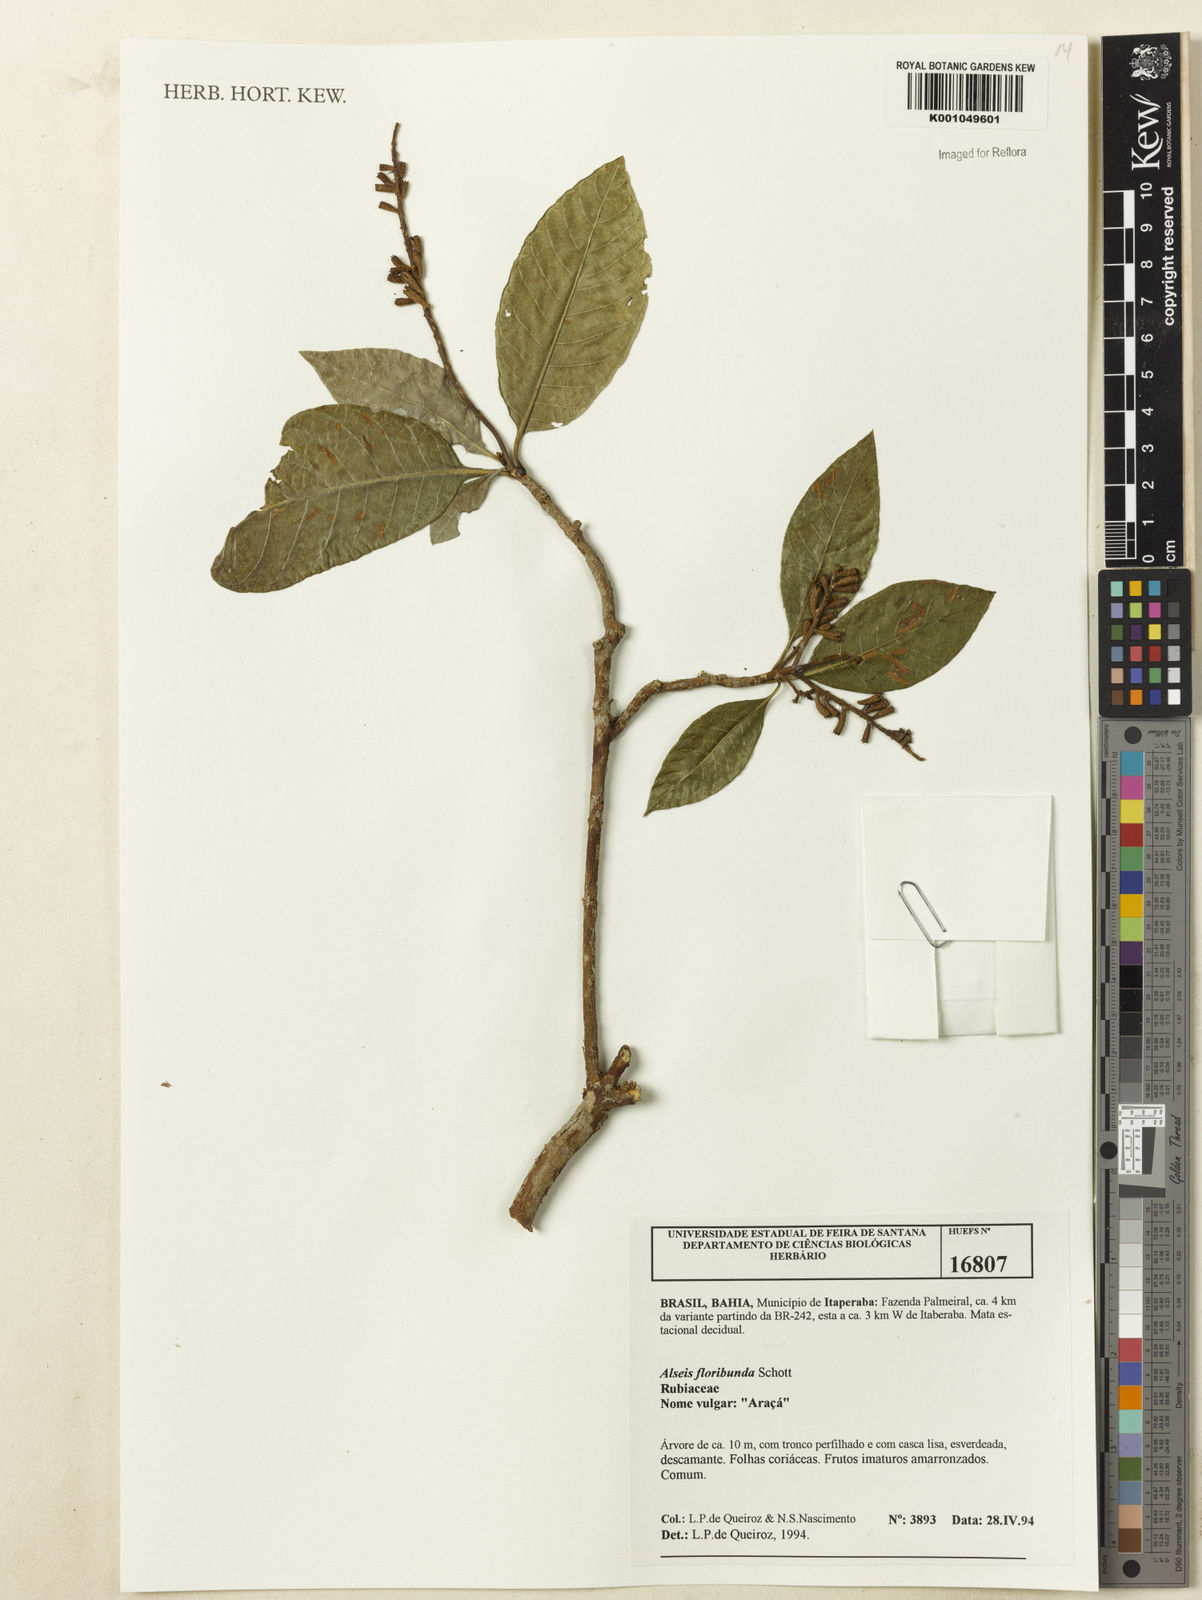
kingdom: Plantae
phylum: Tracheophyta
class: Magnoliopsida
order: Gentianales
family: Rubiaceae
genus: Alseis
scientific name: Alseis floribunda
